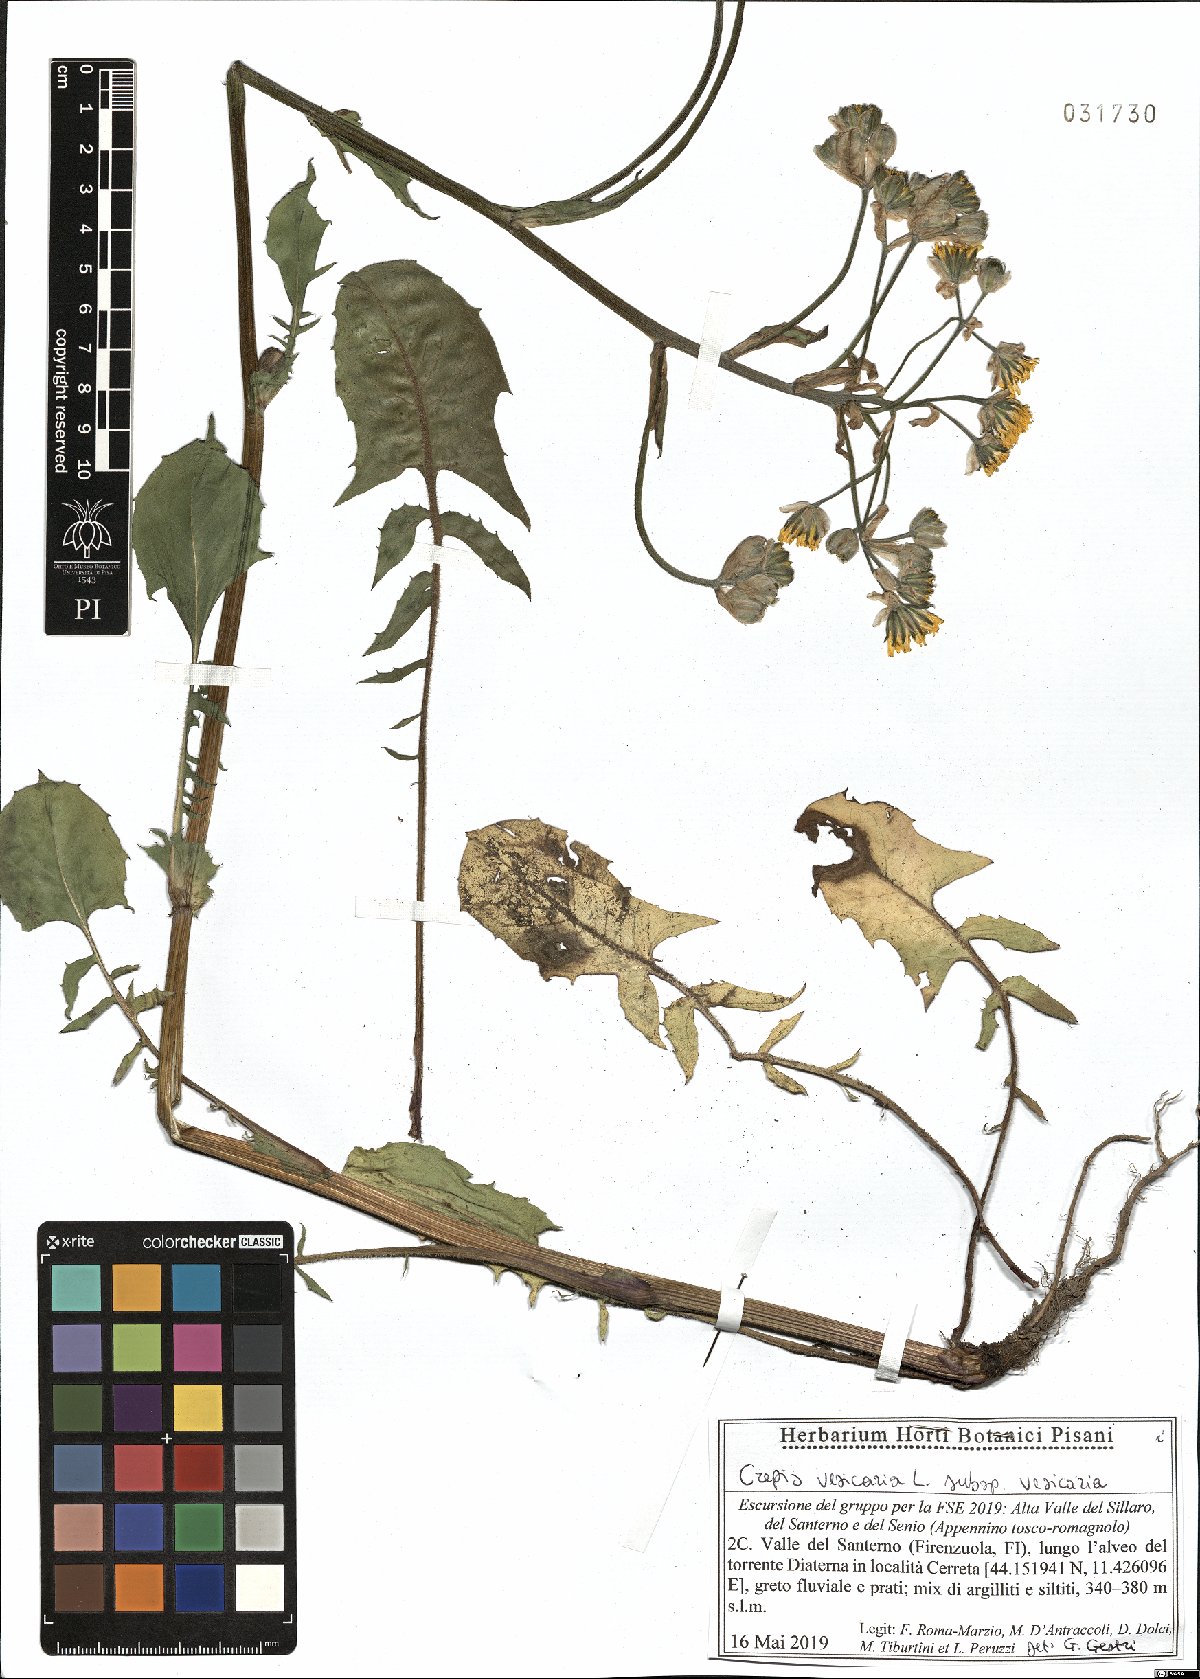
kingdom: Plantae
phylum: Tracheophyta
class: Magnoliopsida
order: Asterales
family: Asteraceae
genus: Crepis
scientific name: Crepis vesicaria
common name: Beaked hawksbeard
